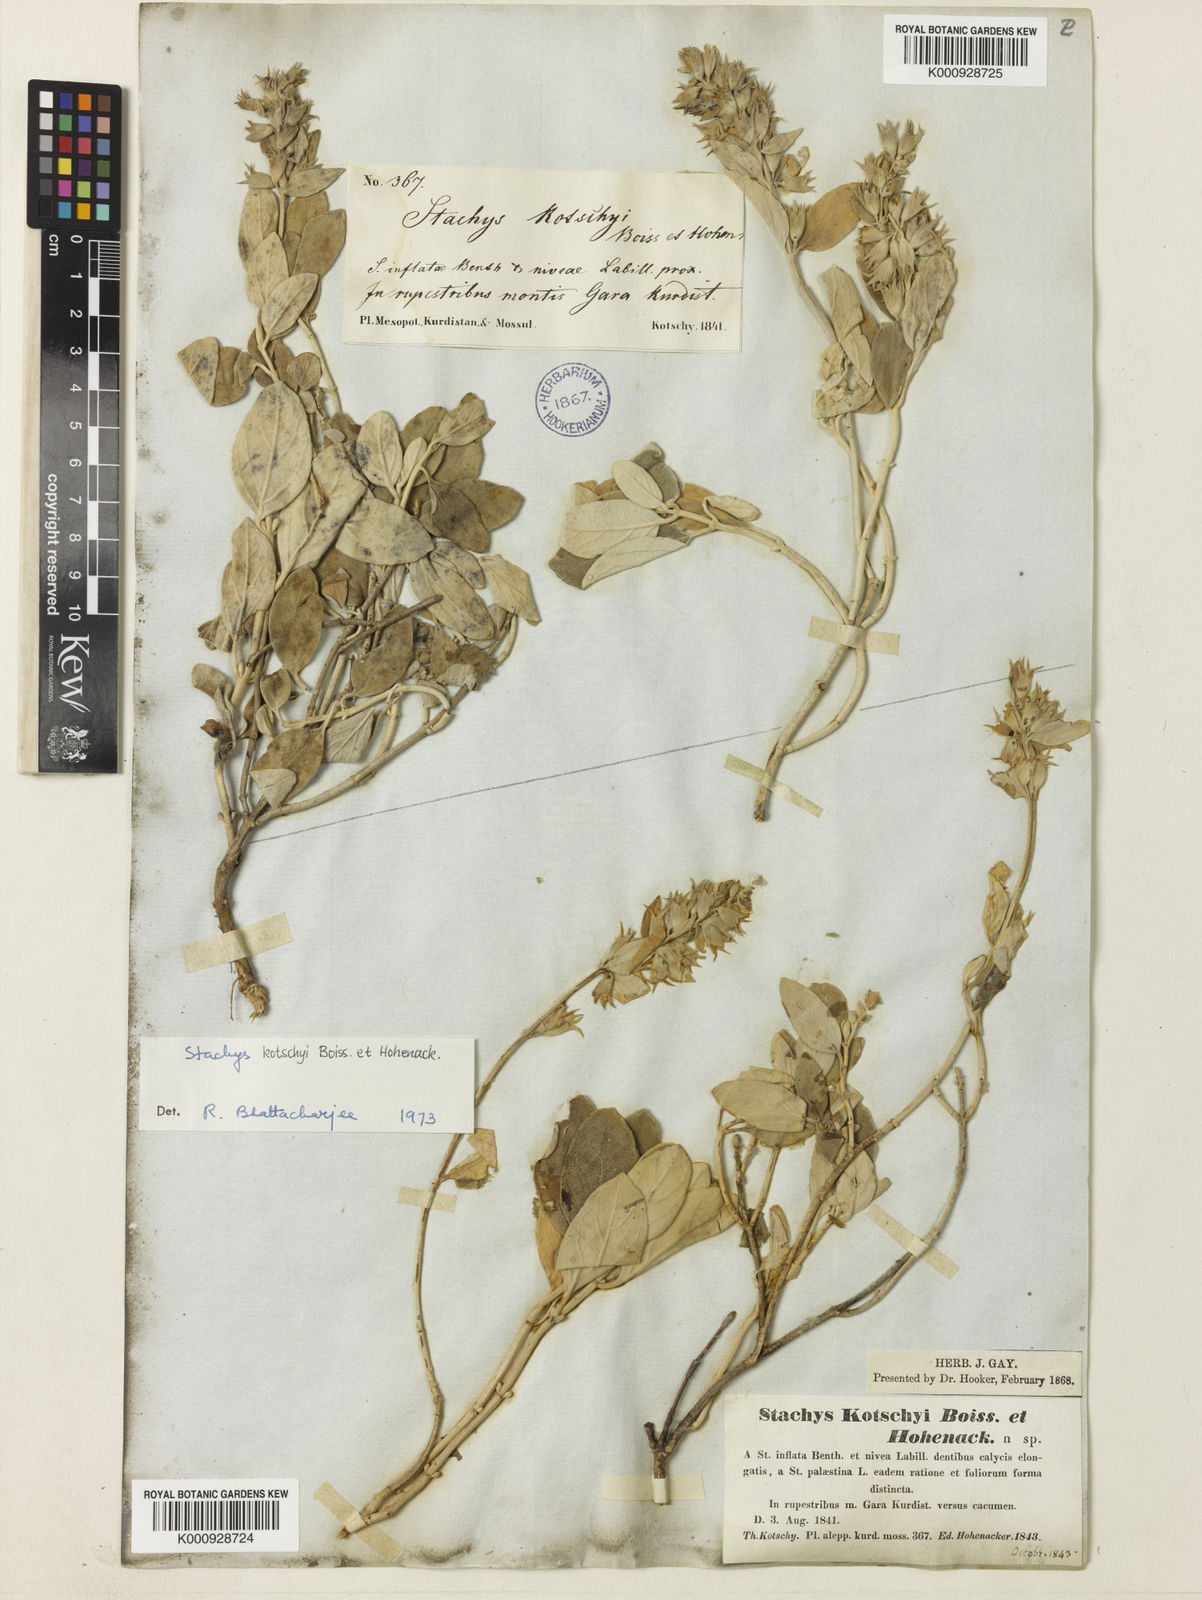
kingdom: Plantae
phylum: Tracheophyta
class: Magnoliopsida
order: Lamiales
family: Lamiaceae
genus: Stachys
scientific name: Stachys kotschyi
